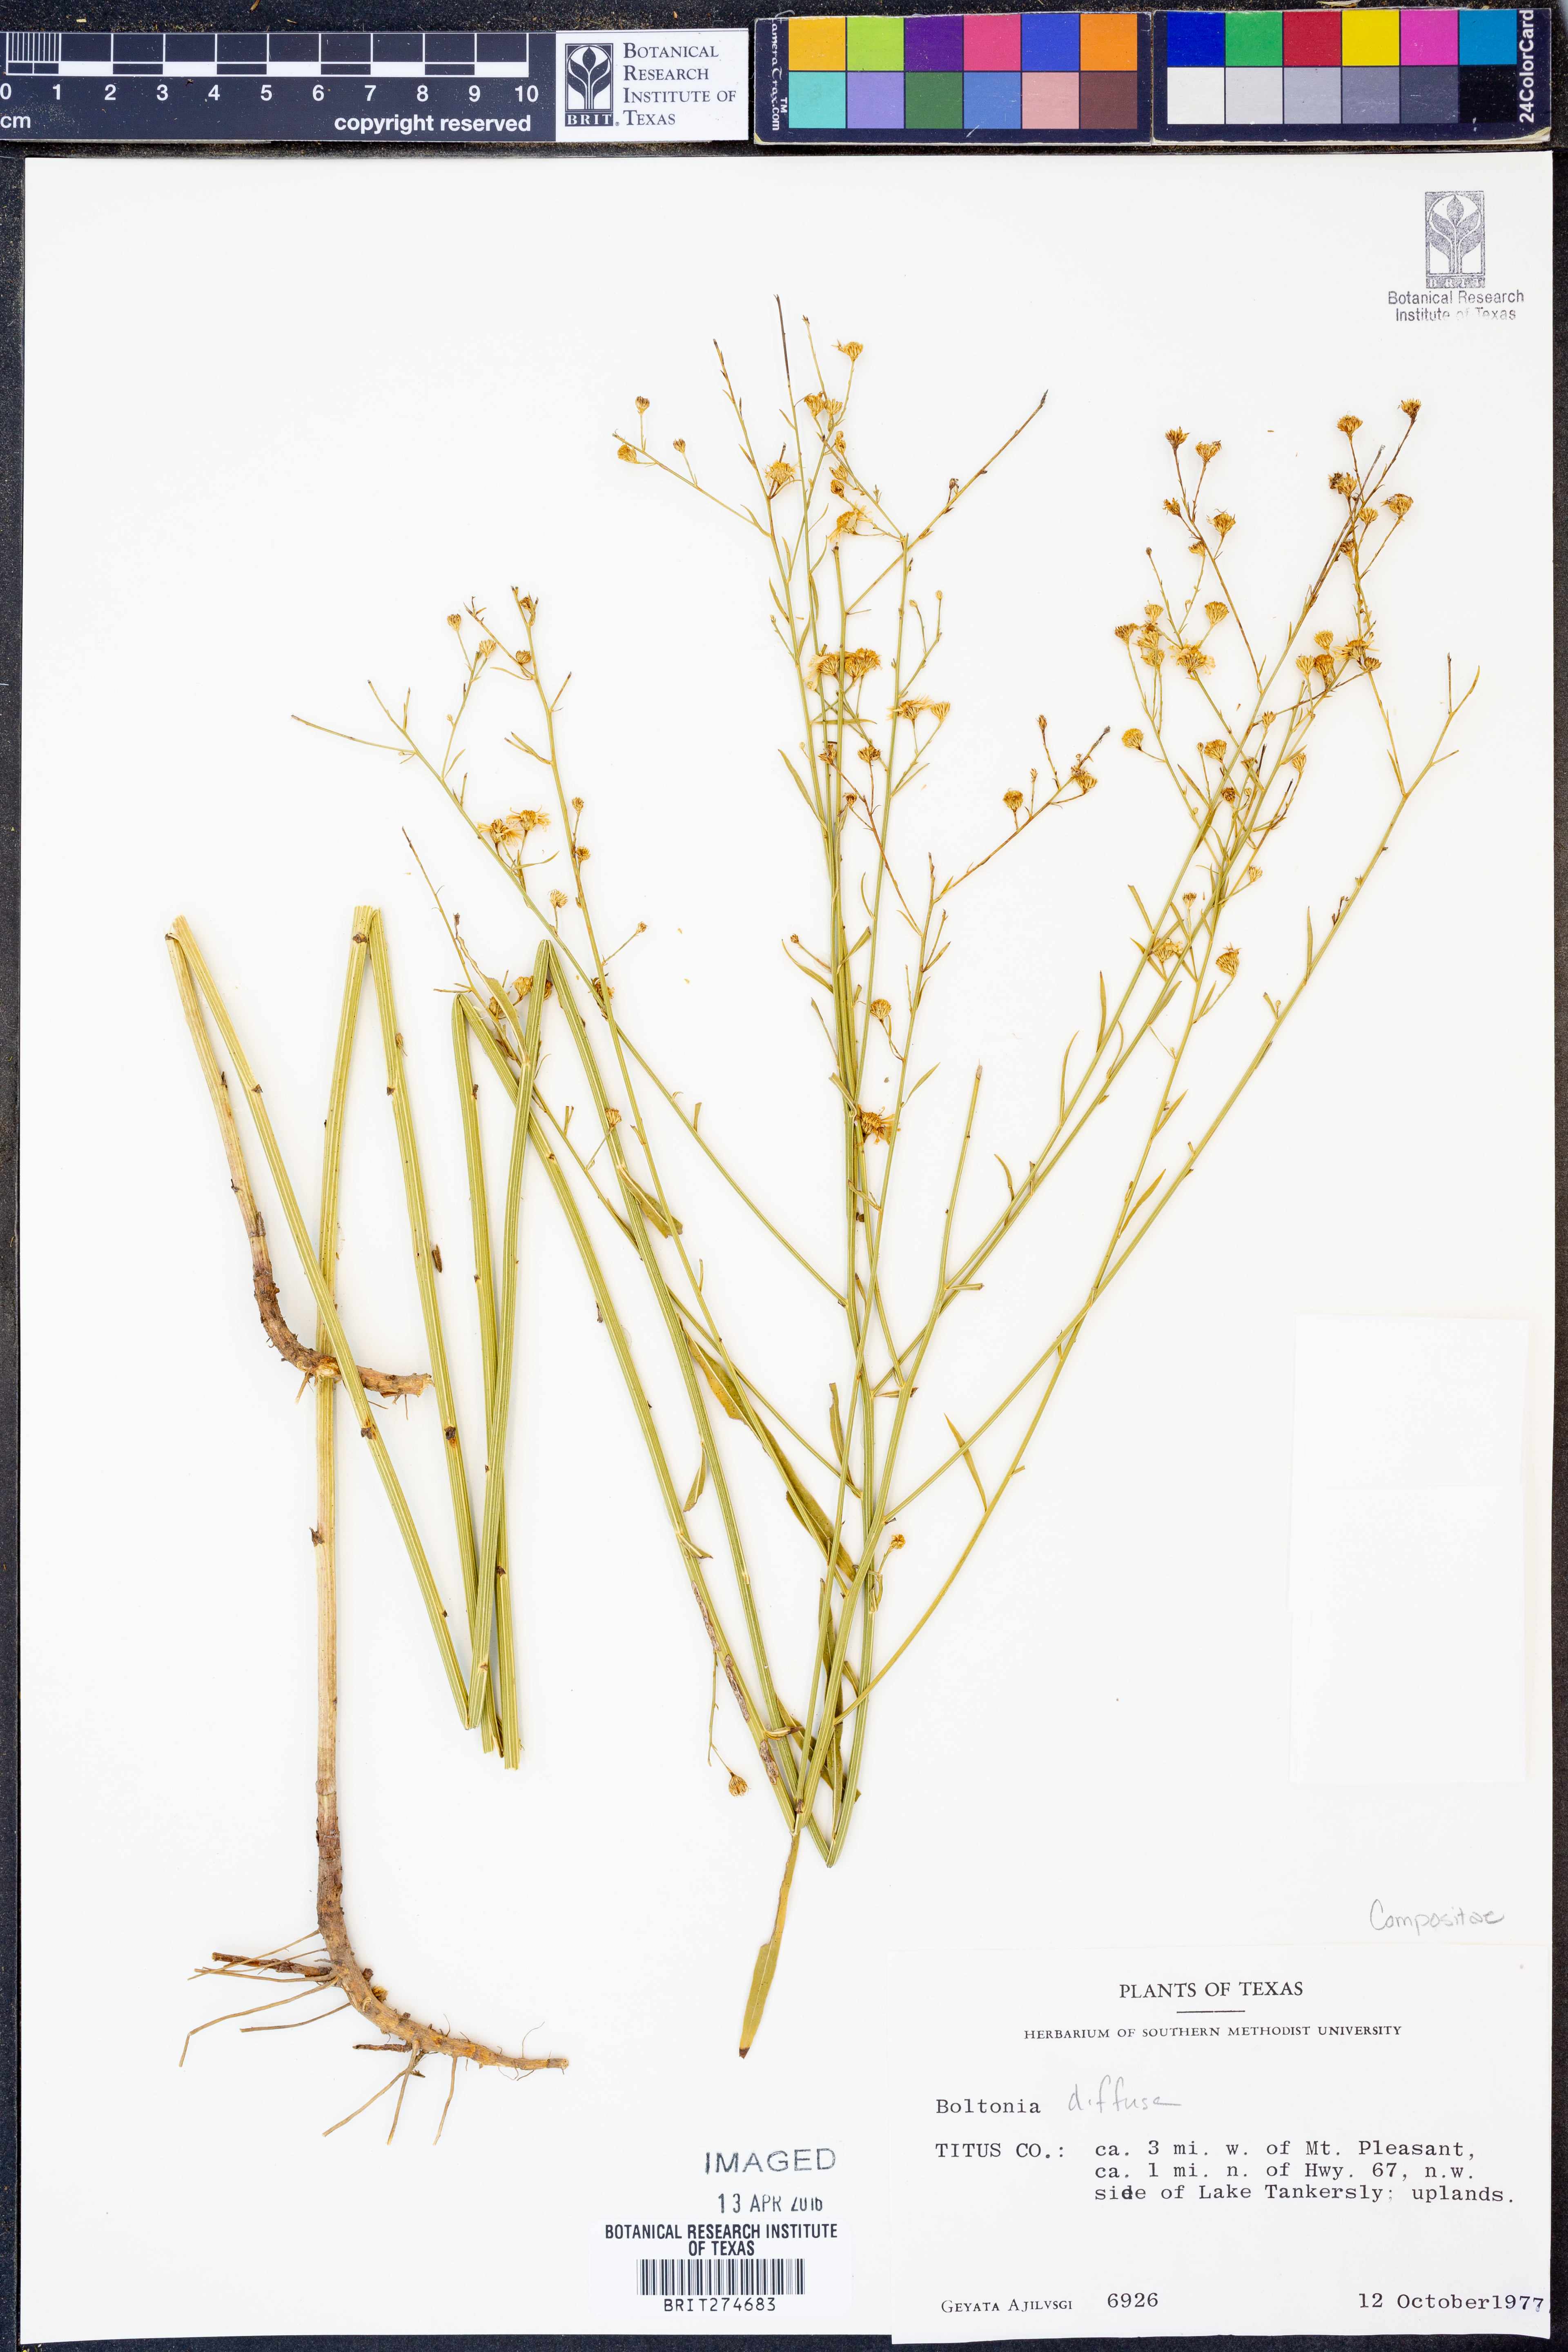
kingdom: Plantae
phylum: Tracheophyta
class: Magnoliopsida
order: Asterales
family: Asteraceae
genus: Boltonia
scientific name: Boltonia diffusa
